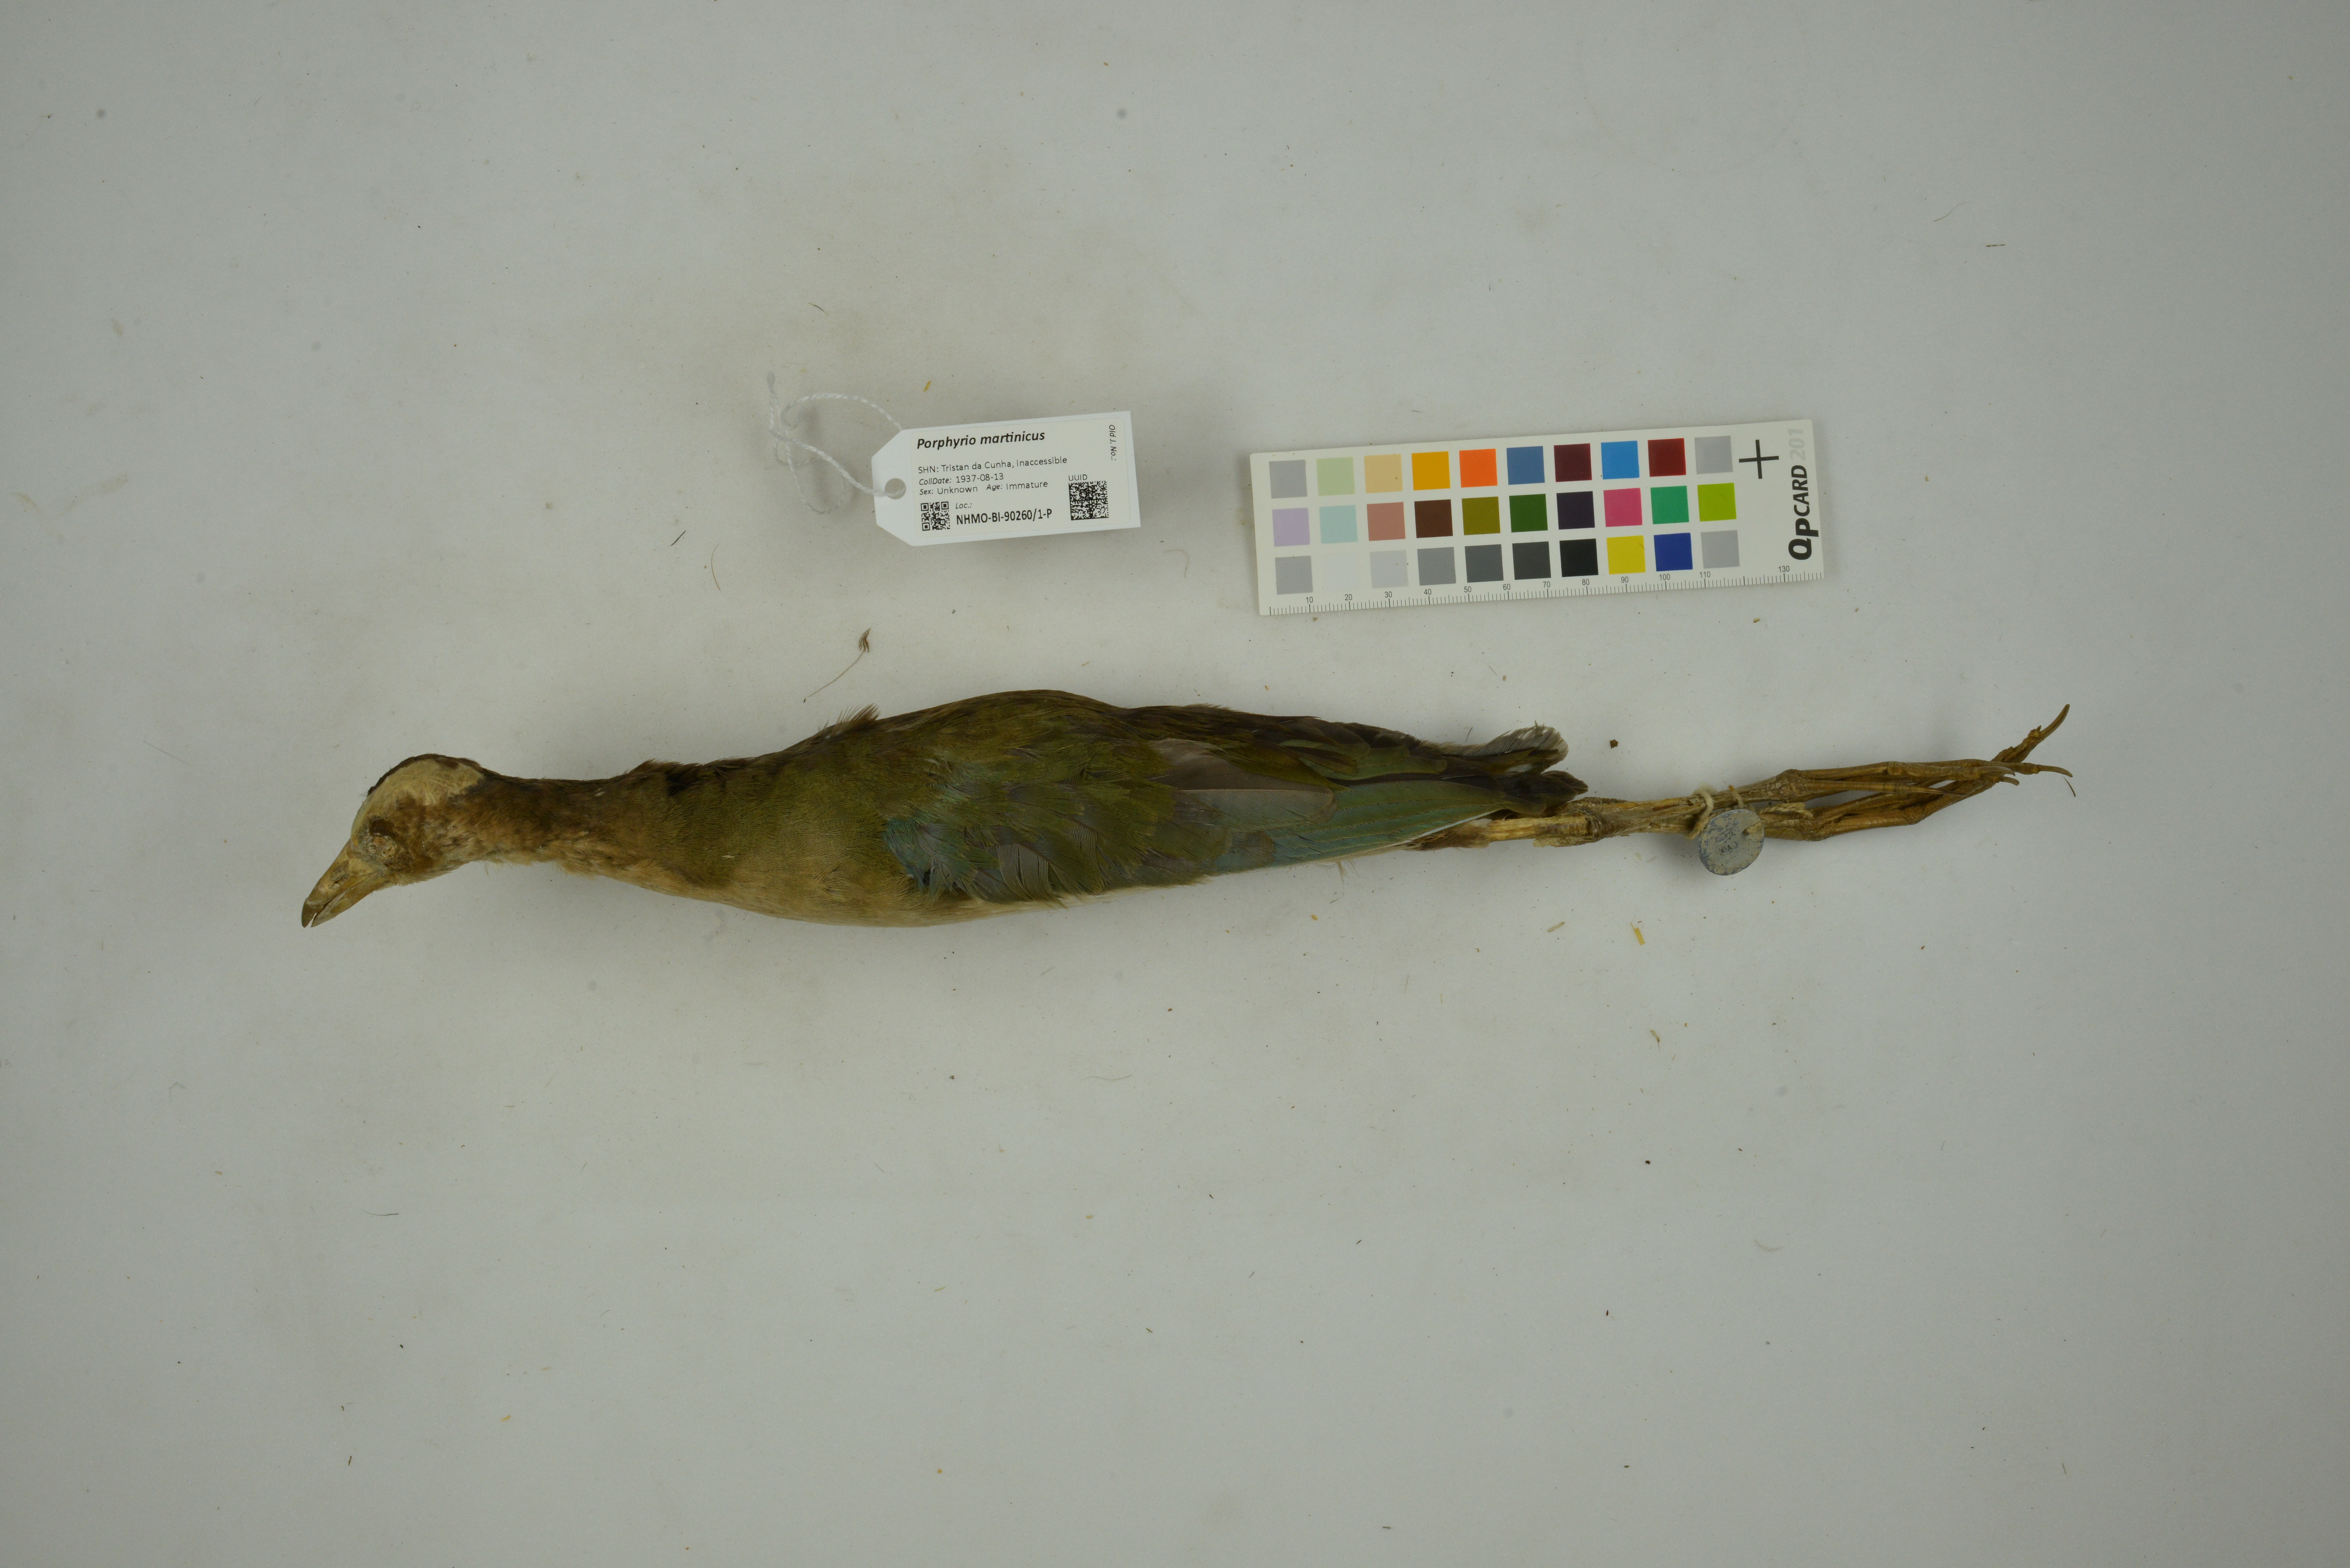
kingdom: Animalia
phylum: Chordata
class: Aves
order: Gruiformes
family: Rallidae
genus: Porphyrio
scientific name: Porphyrio martinica
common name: Purple gallinule
